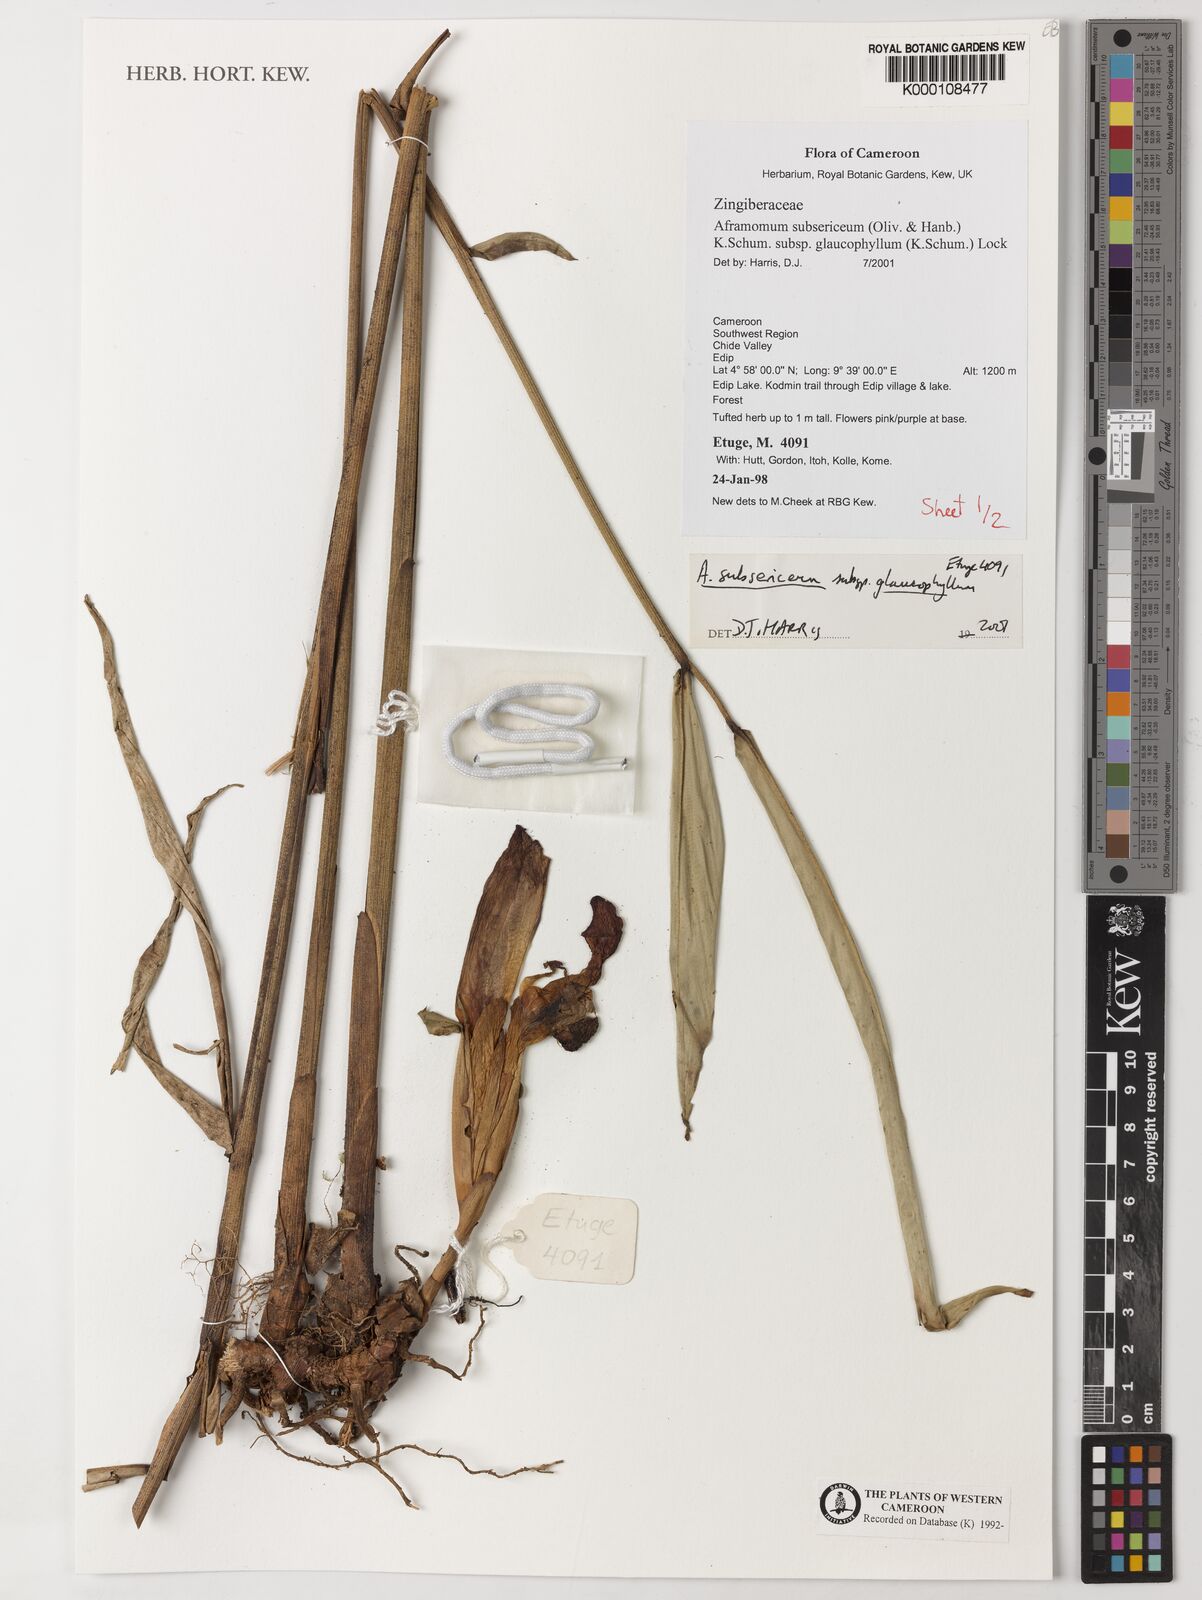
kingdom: Plantae
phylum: Tracheophyta
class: Liliopsida
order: Zingiberales
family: Zingiberaceae
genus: Aframomum
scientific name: Aframomum glaucophyllum
